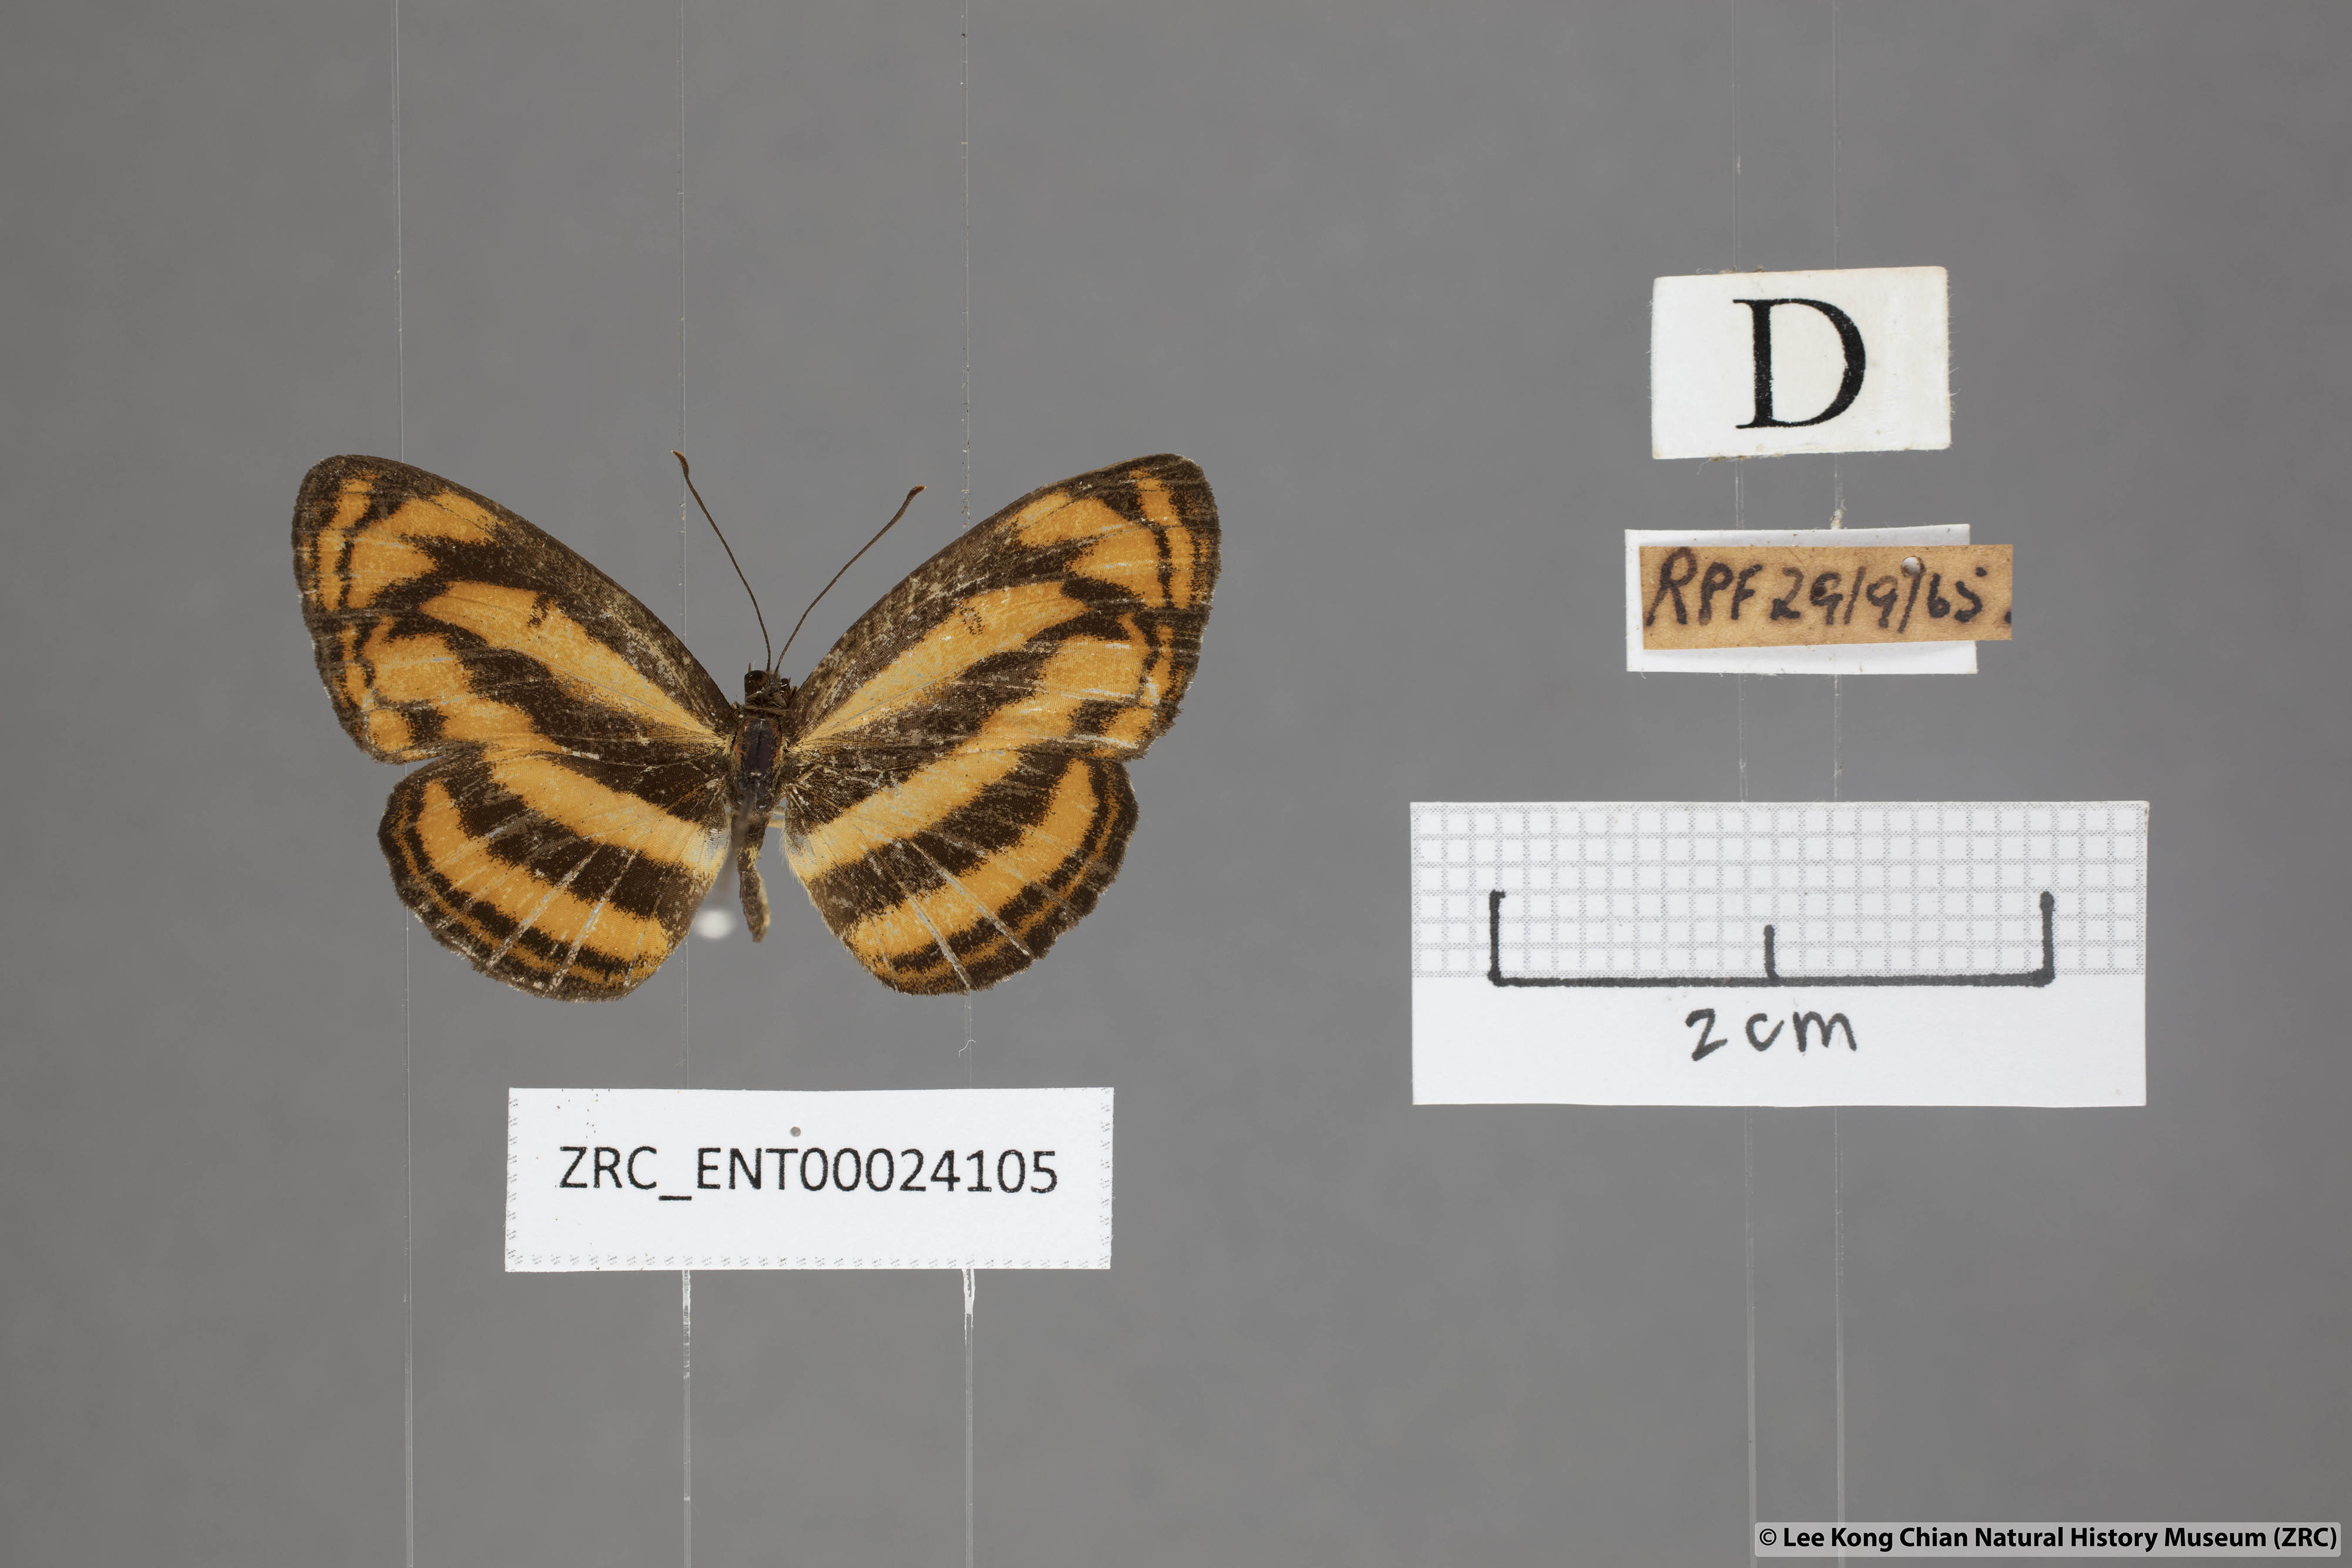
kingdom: Animalia
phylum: Arthropoda
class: Insecta
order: Lepidoptera
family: Nymphalidae
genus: Pantoporia
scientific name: Pantoporia aurelia
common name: Baby lascar
